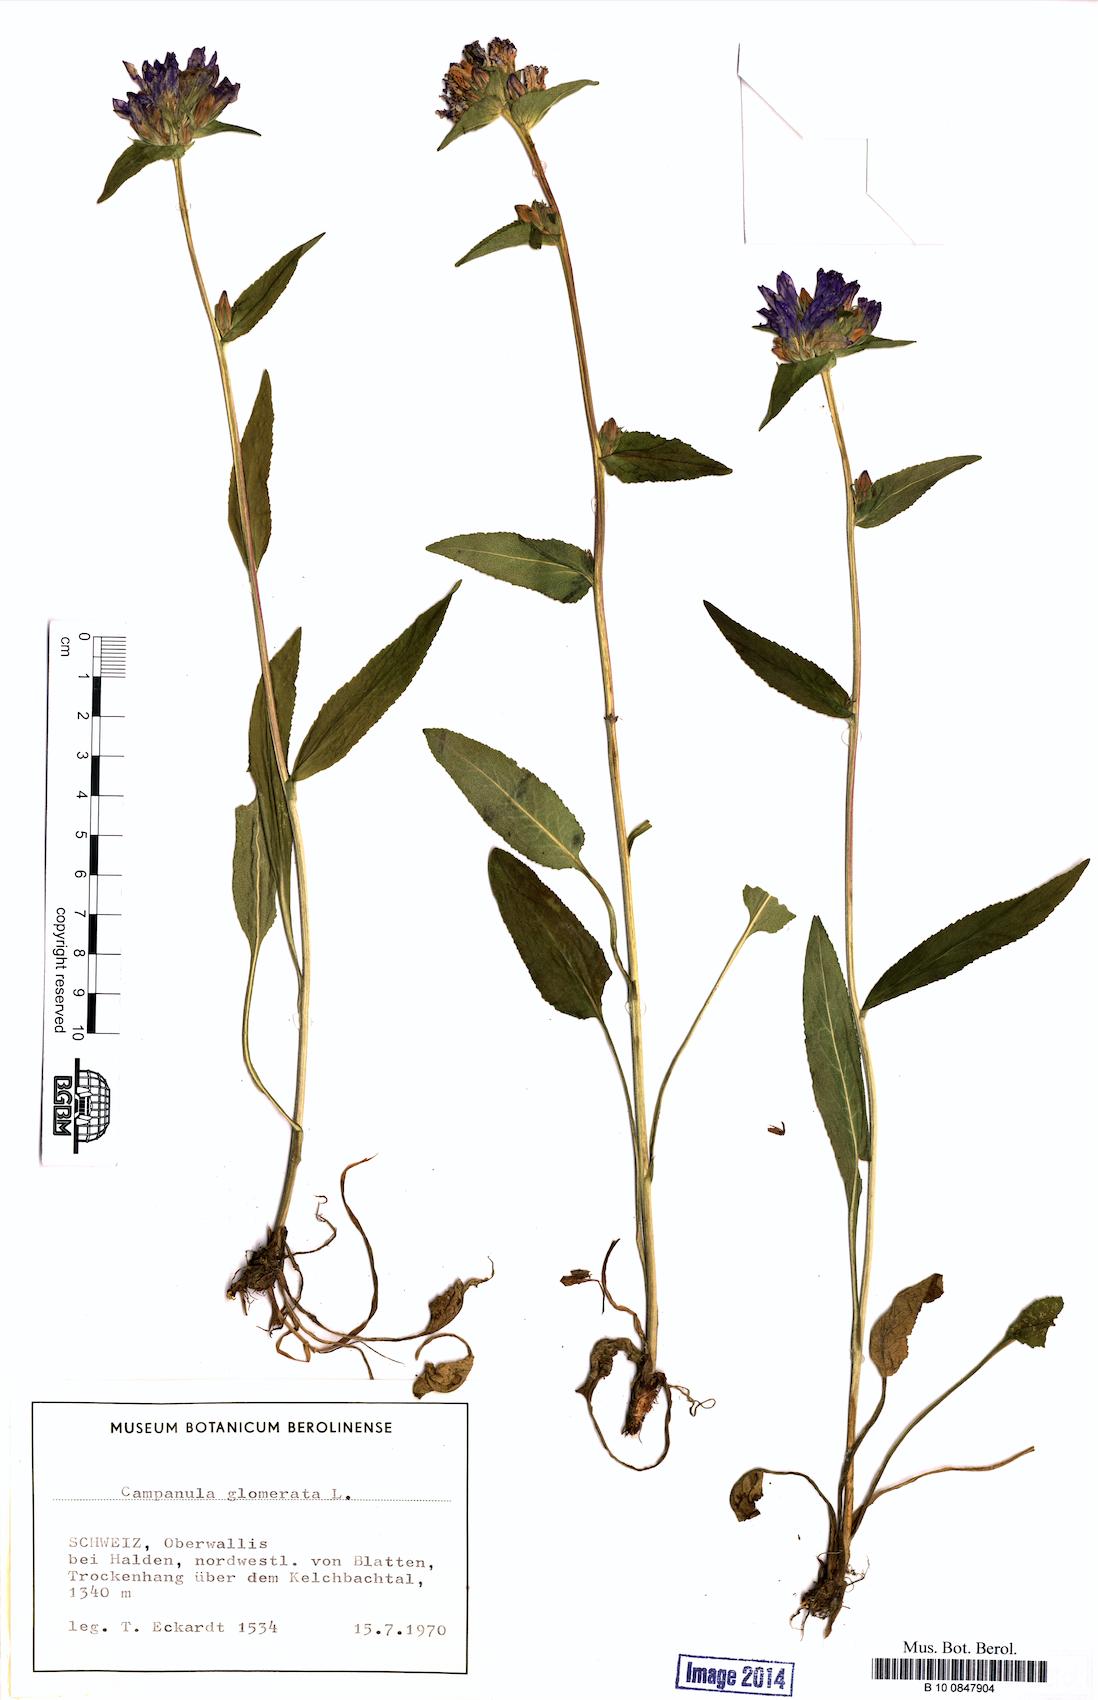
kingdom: Plantae
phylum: Tracheophyta
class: Magnoliopsida
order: Asterales
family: Campanulaceae
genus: Campanula
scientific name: Campanula glomerata
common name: Clustered bellflower
